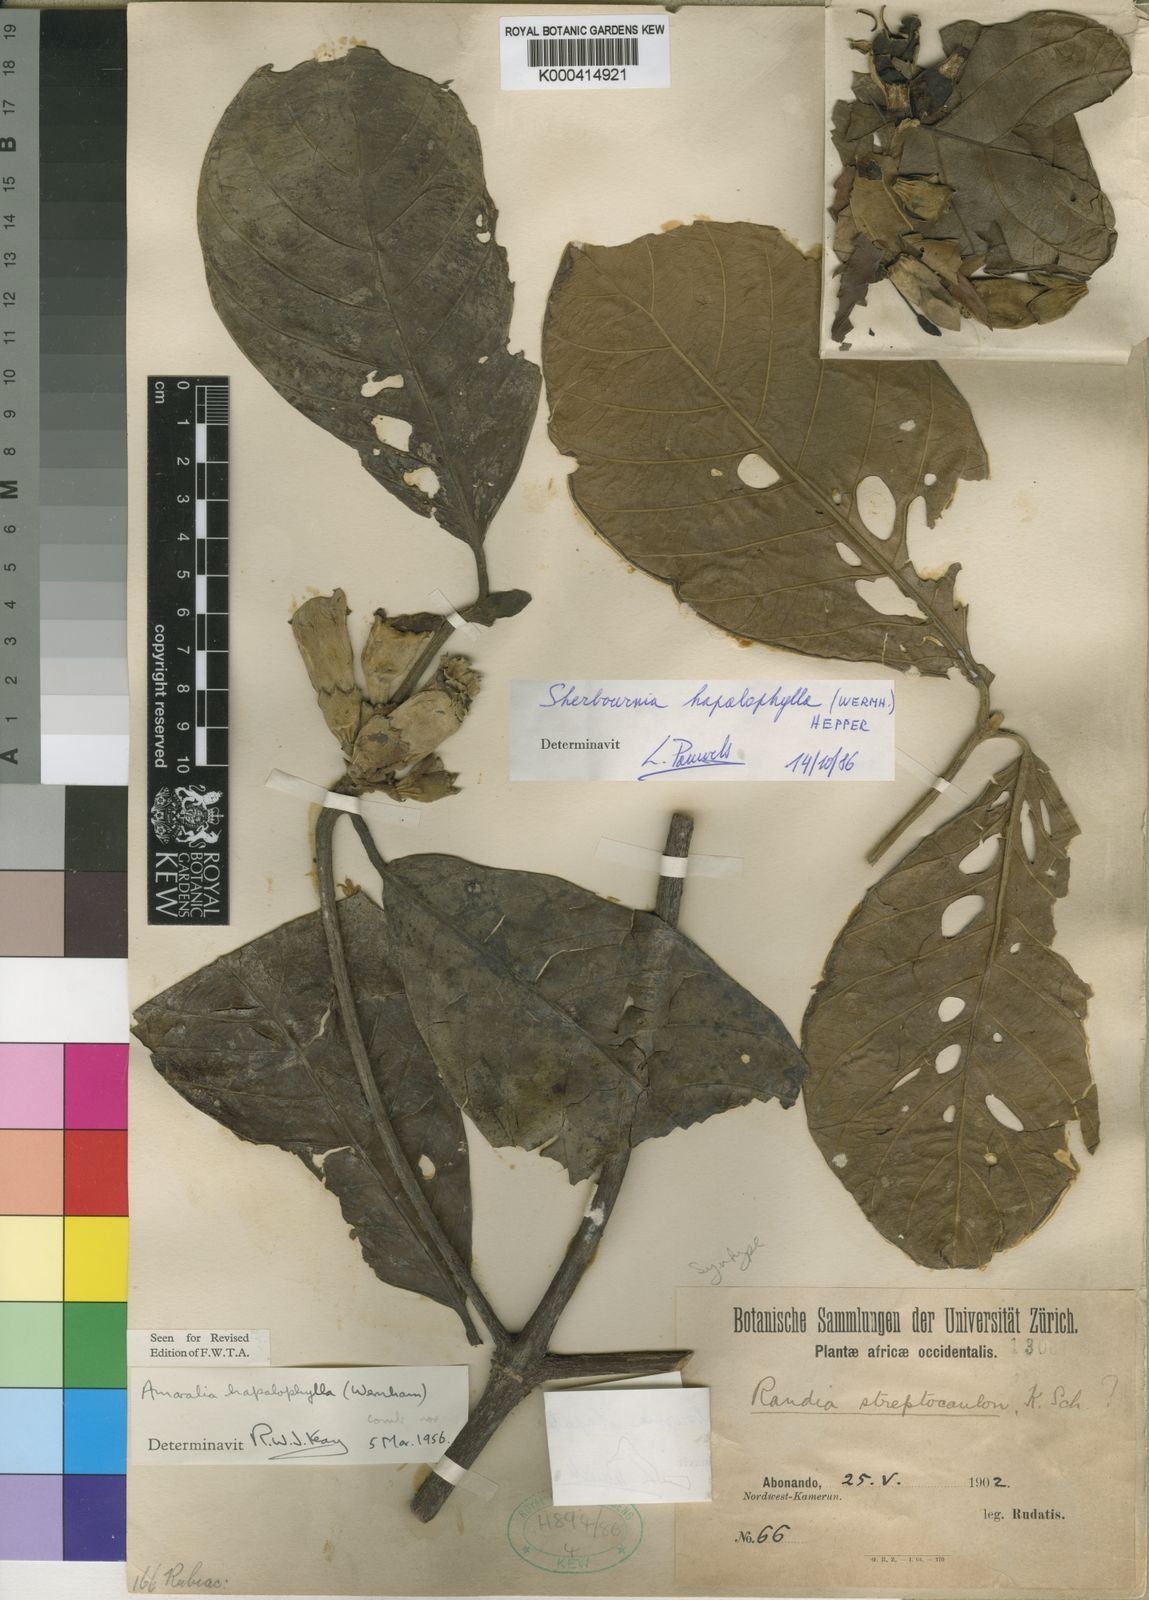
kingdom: Plantae
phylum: Tracheophyta
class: Magnoliopsida
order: Gentianales
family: Rubiaceae
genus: Sherbournia
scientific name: Sherbournia hapalophylla
